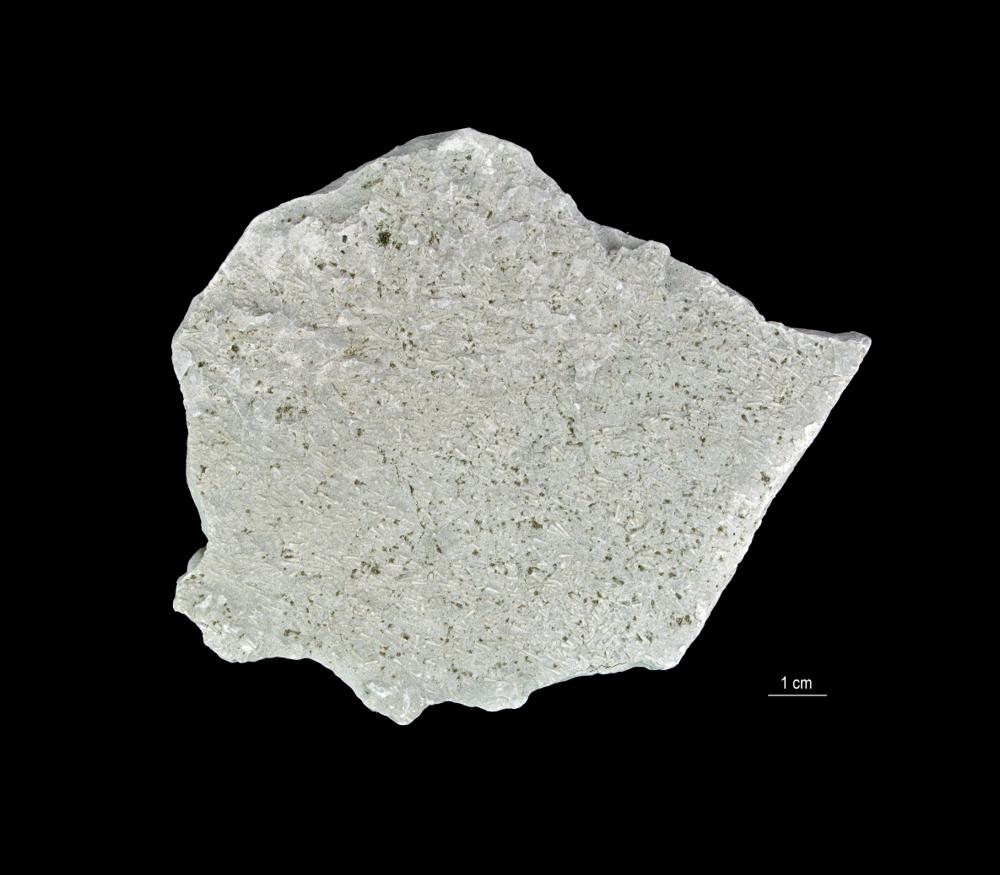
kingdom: Animalia
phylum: Annelida
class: Polychaeta
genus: Volborthella
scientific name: Volborthella tenuis
